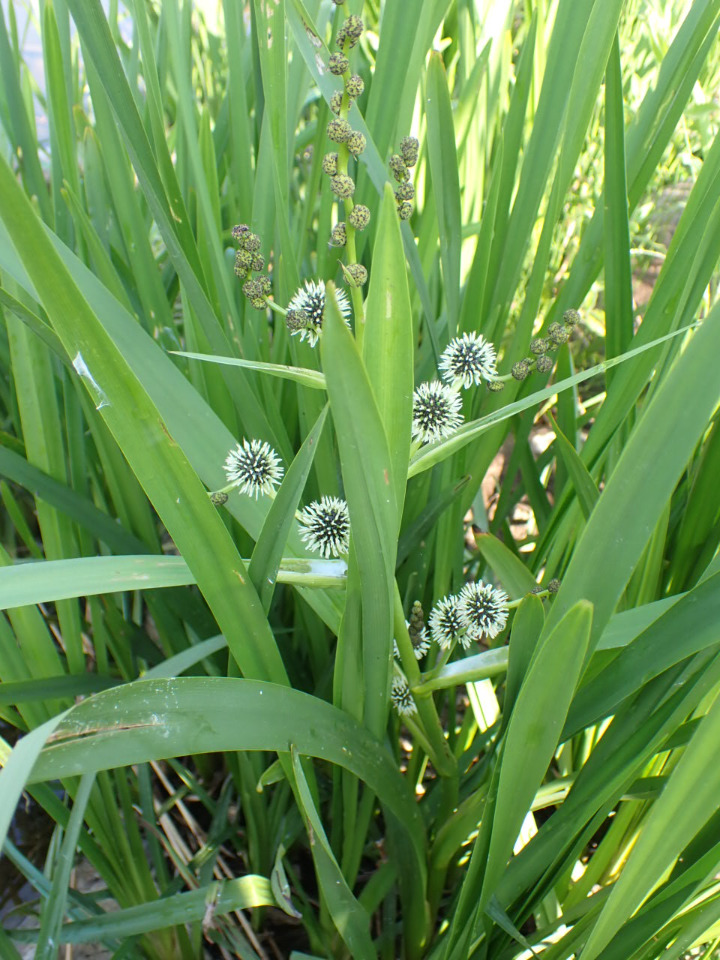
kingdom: Plantae
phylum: Tracheophyta
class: Liliopsida
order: Poales
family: Typhaceae
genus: Sparganium
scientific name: Sparganium erectum
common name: Grenet pindsvineknop
